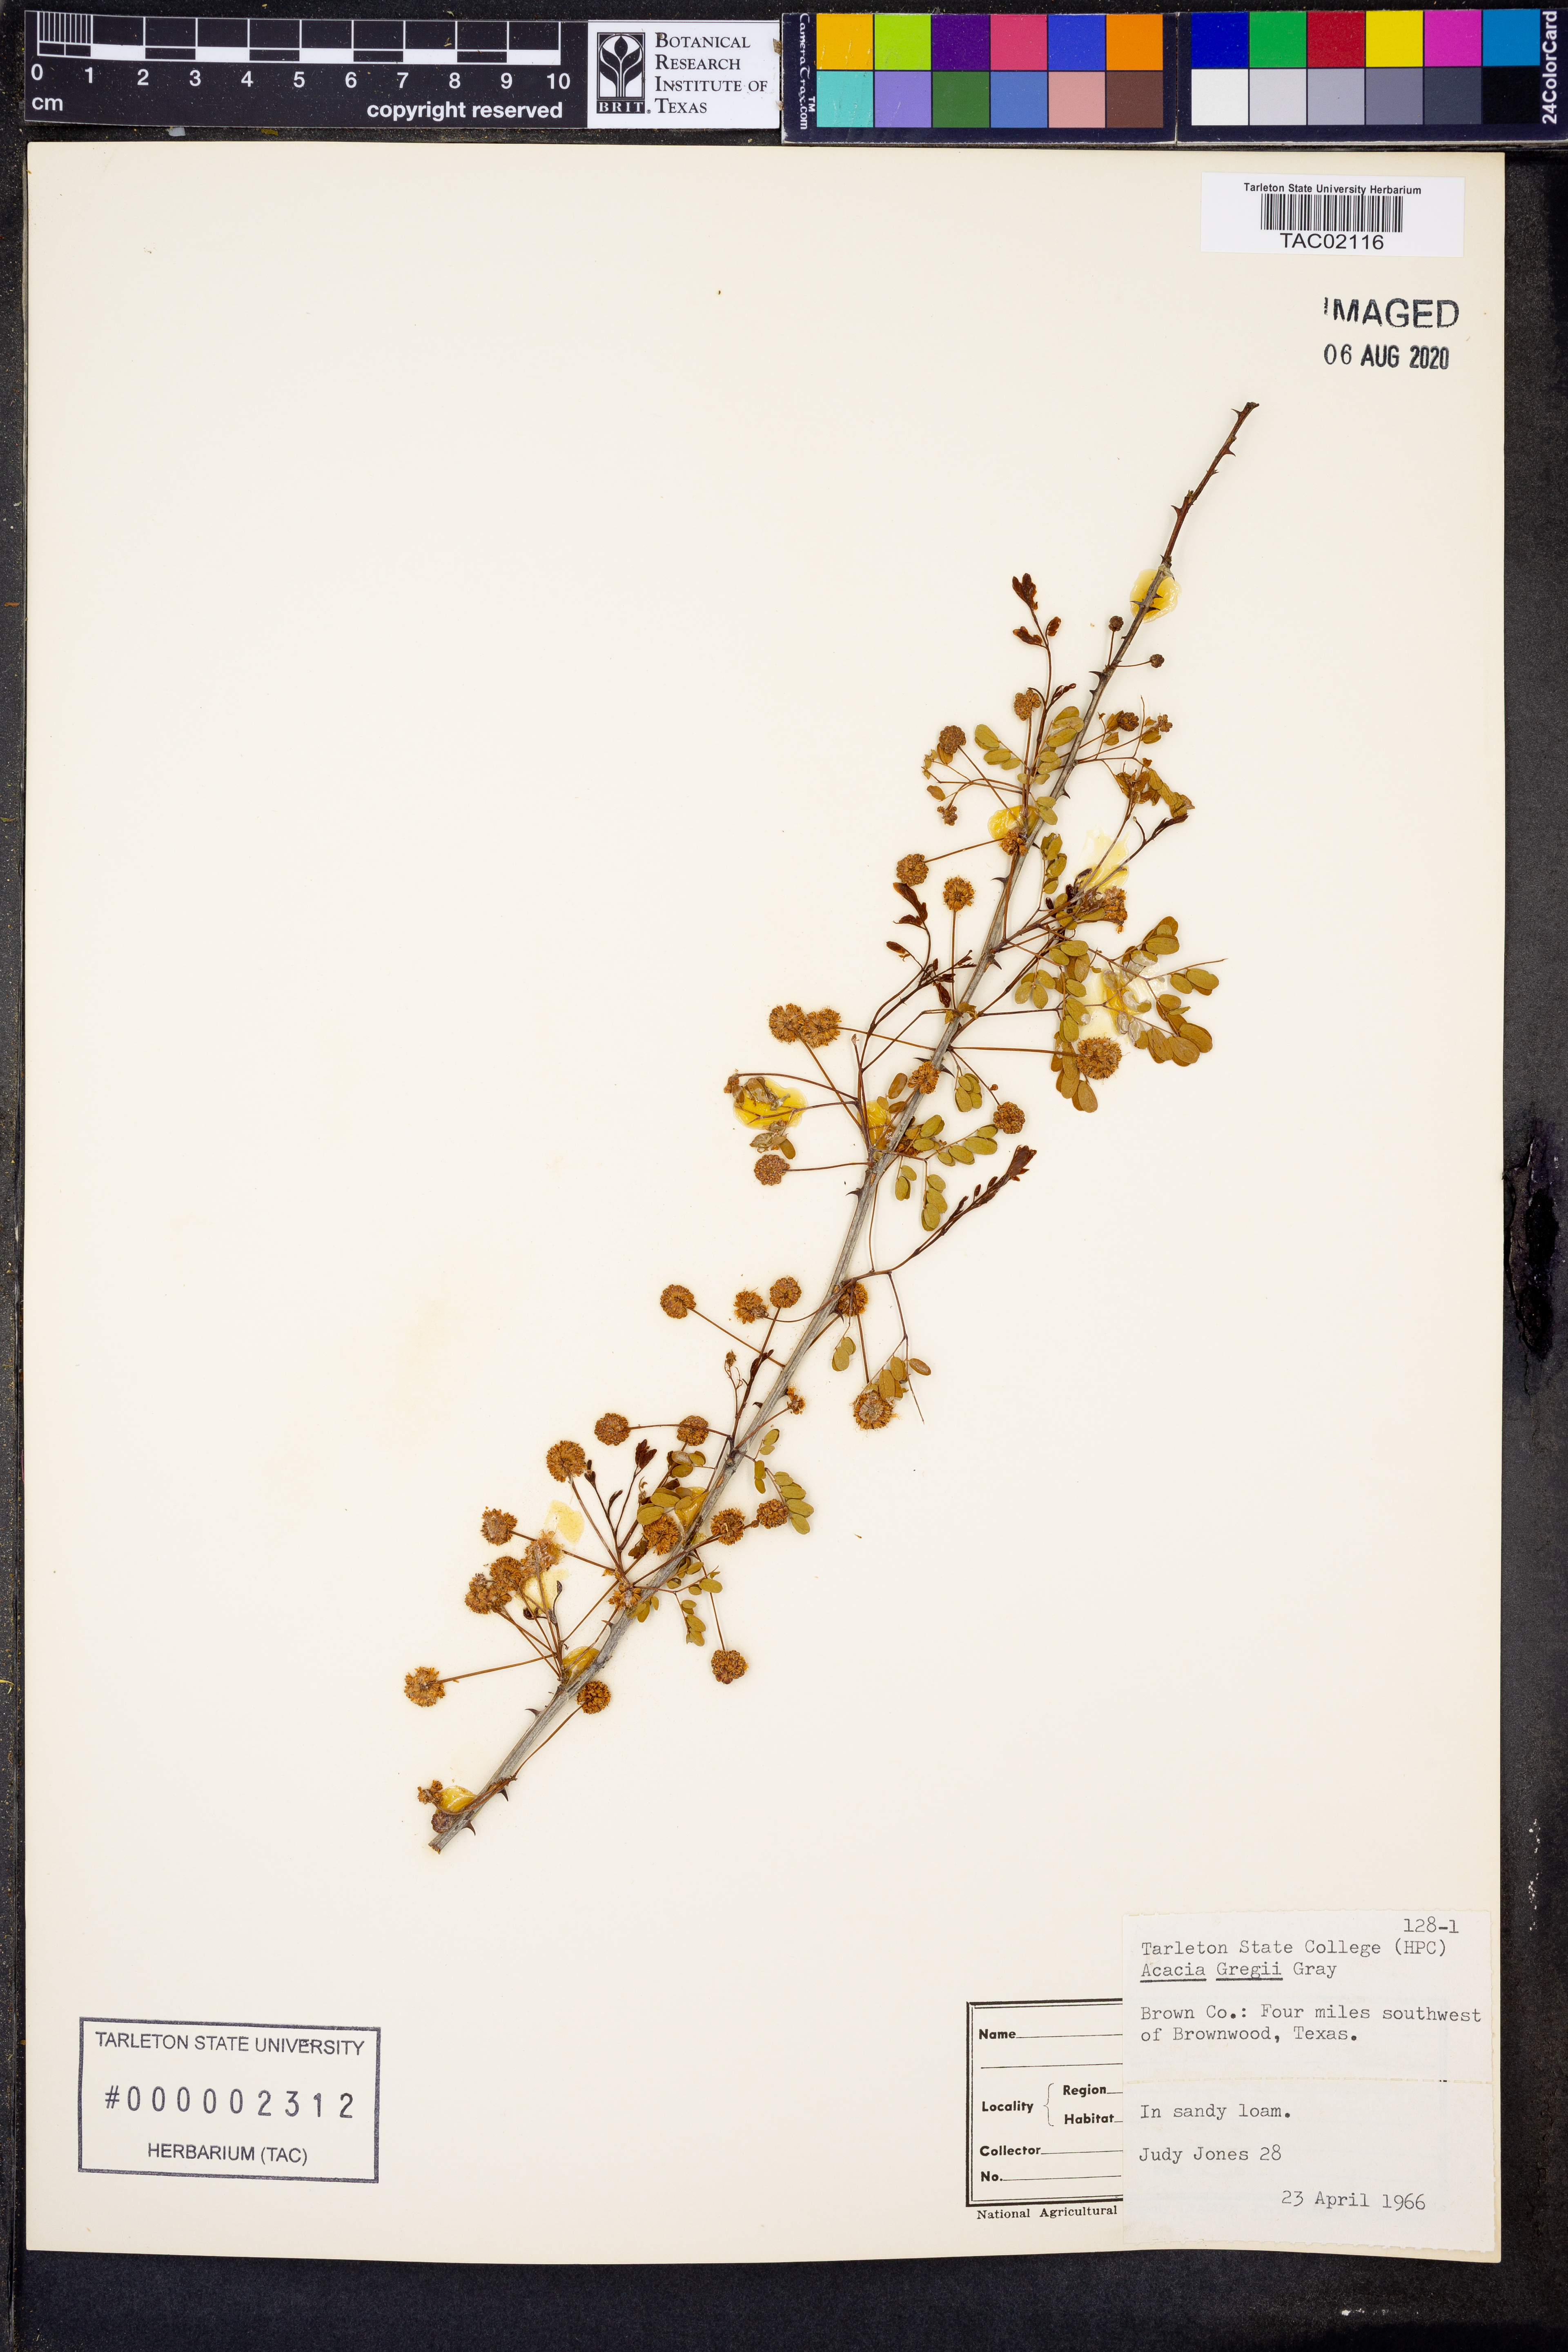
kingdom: Plantae
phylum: Tracheophyta
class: Magnoliopsida
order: Fabales
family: Fabaceae
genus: Senegalia
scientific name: Senegalia greggii
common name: Texas-mimosa
